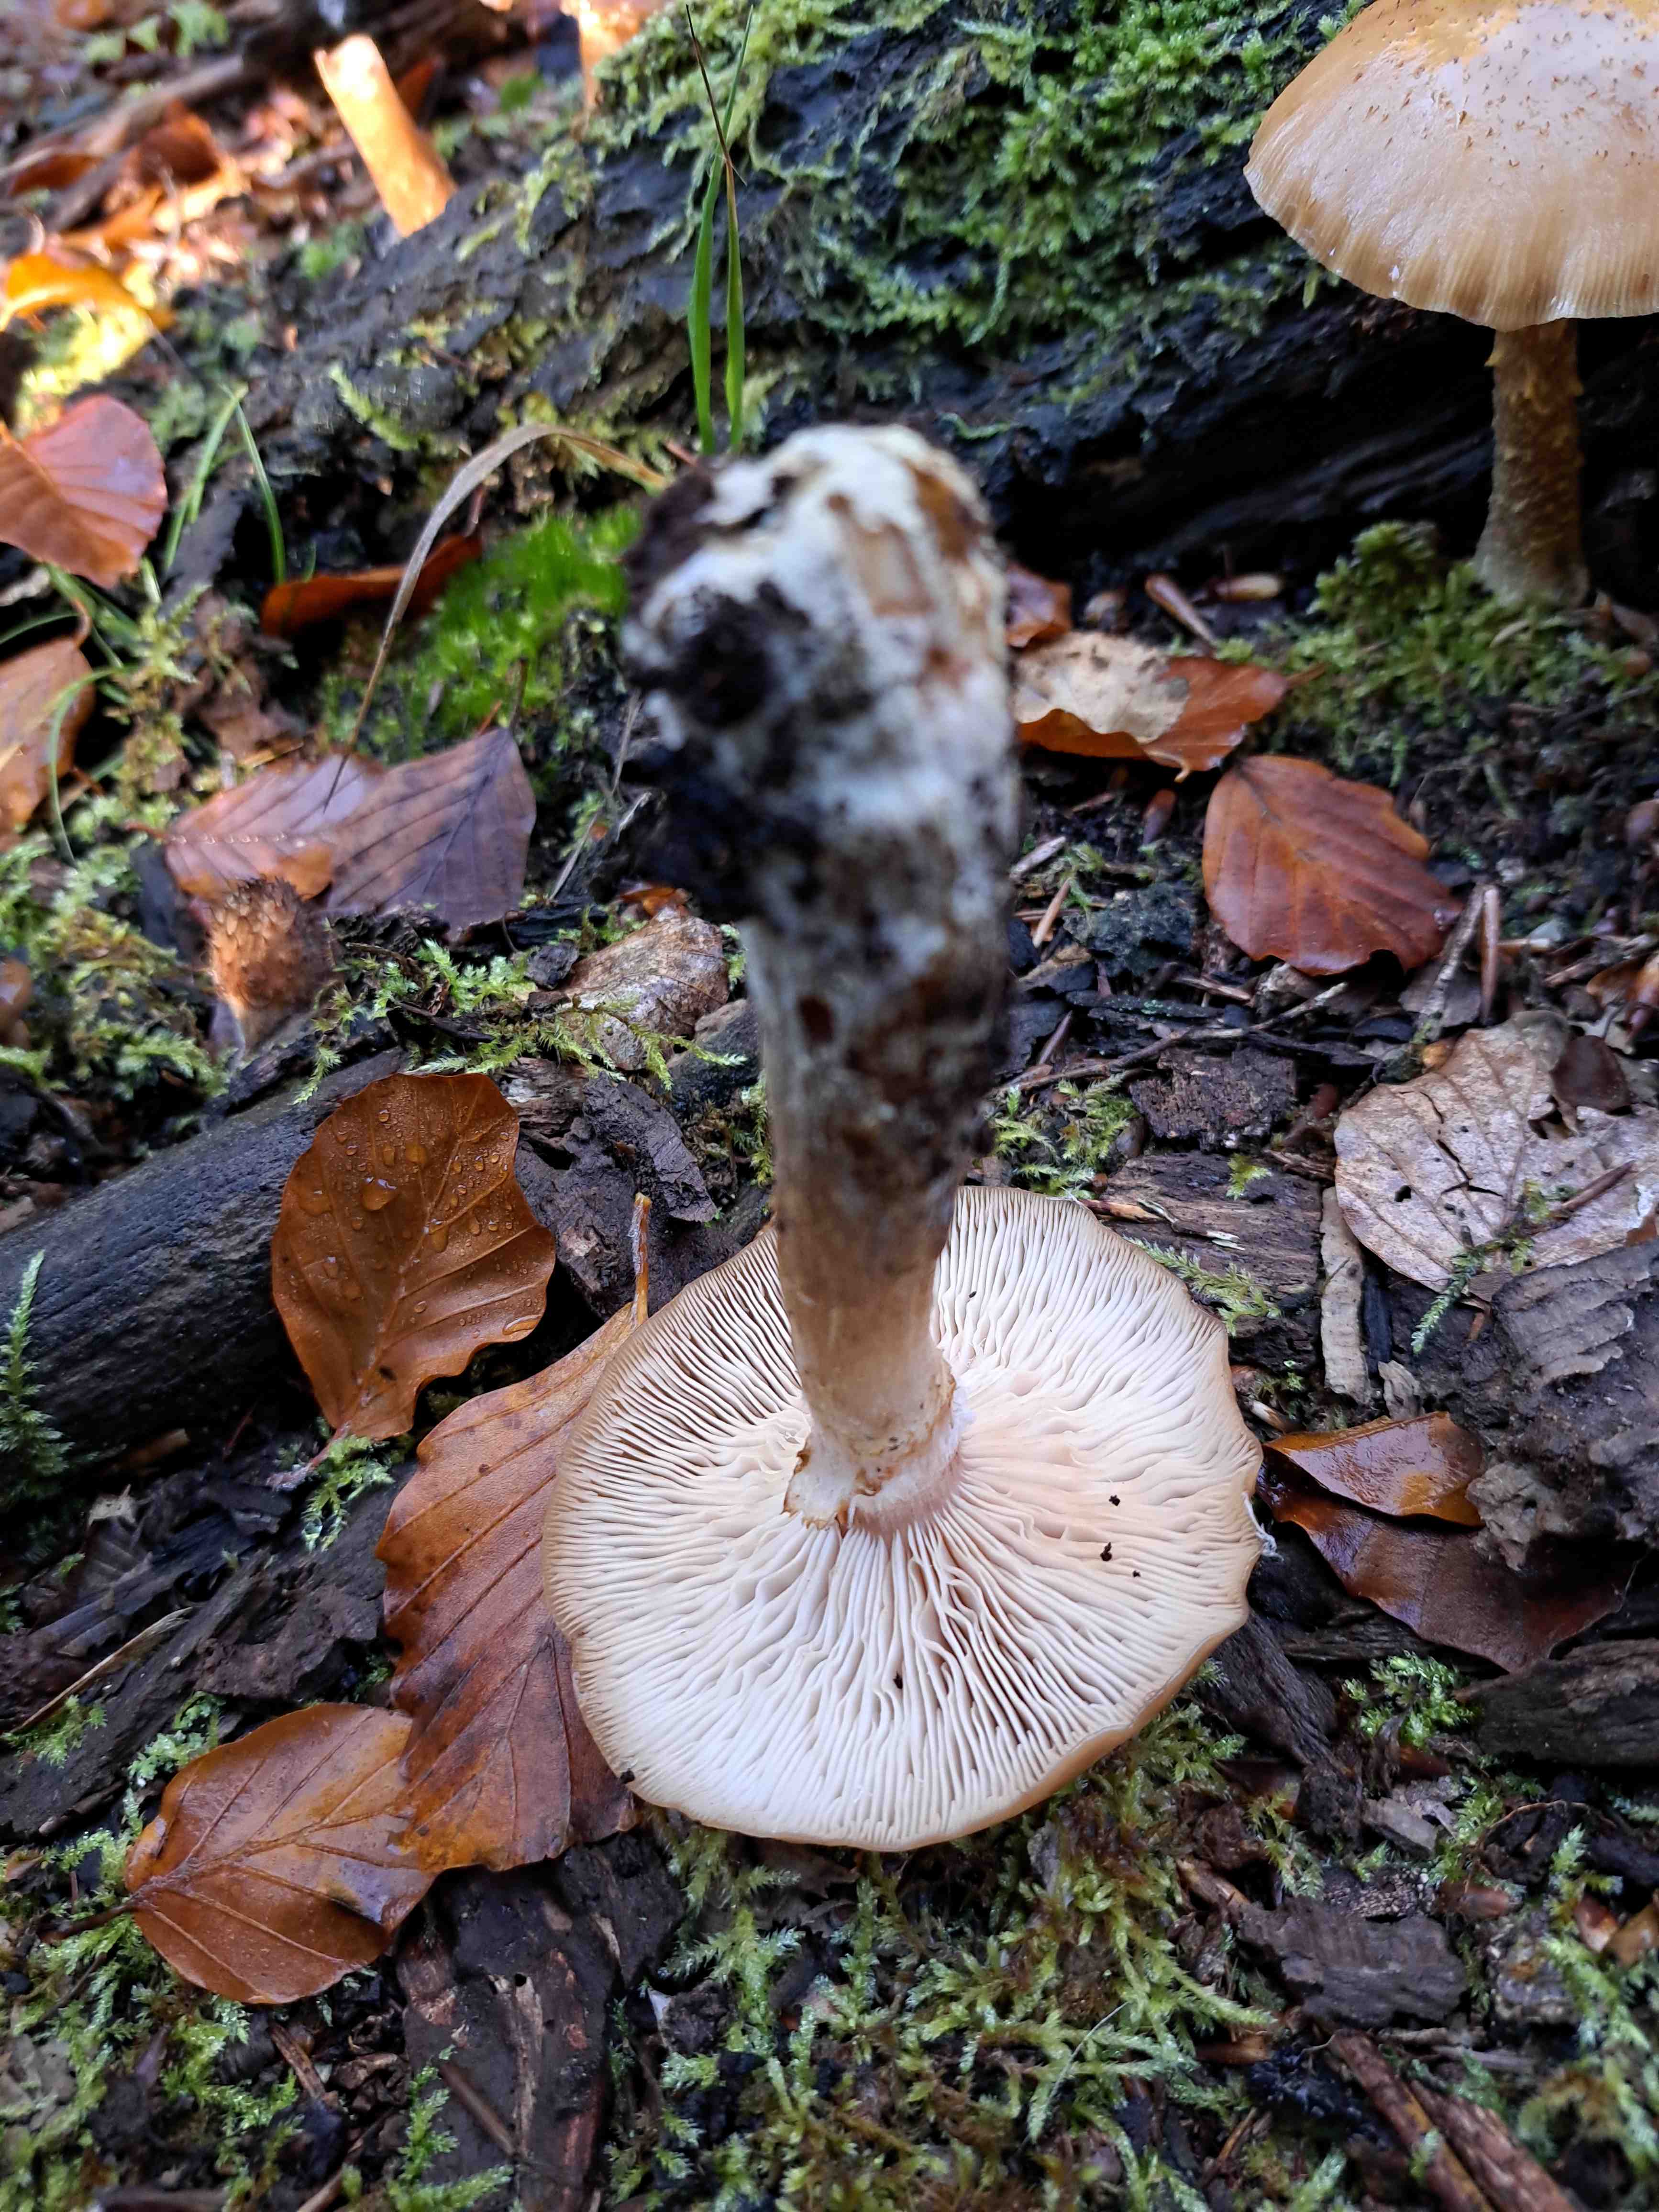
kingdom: Fungi
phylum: Basidiomycota
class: Agaricomycetes
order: Agaricales
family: Physalacriaceae
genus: Armillaria
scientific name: Armillaria lutea
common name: køllestokket honningsvamp
